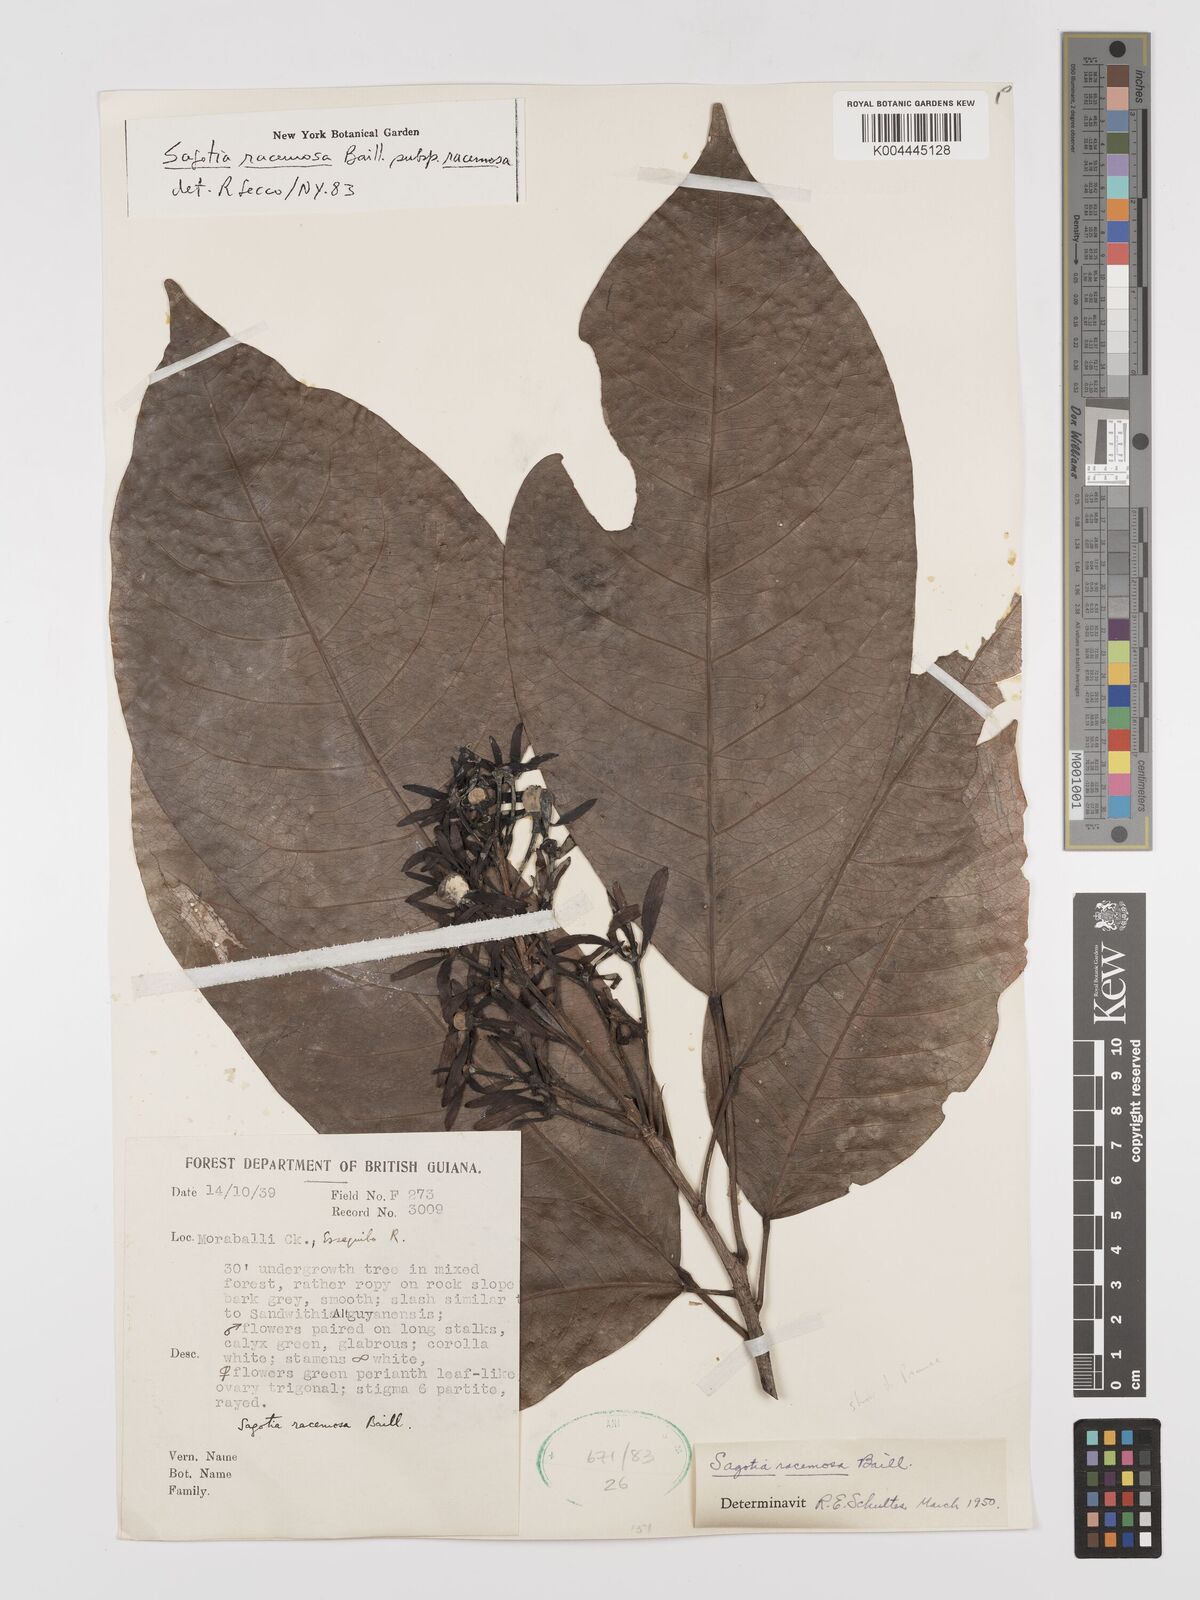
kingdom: Plantae
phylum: Tracheophyta
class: Magnoliopsida
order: Malpighiales
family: Euphorbiaceae
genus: Sagotia
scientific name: Sagotia racemosa
